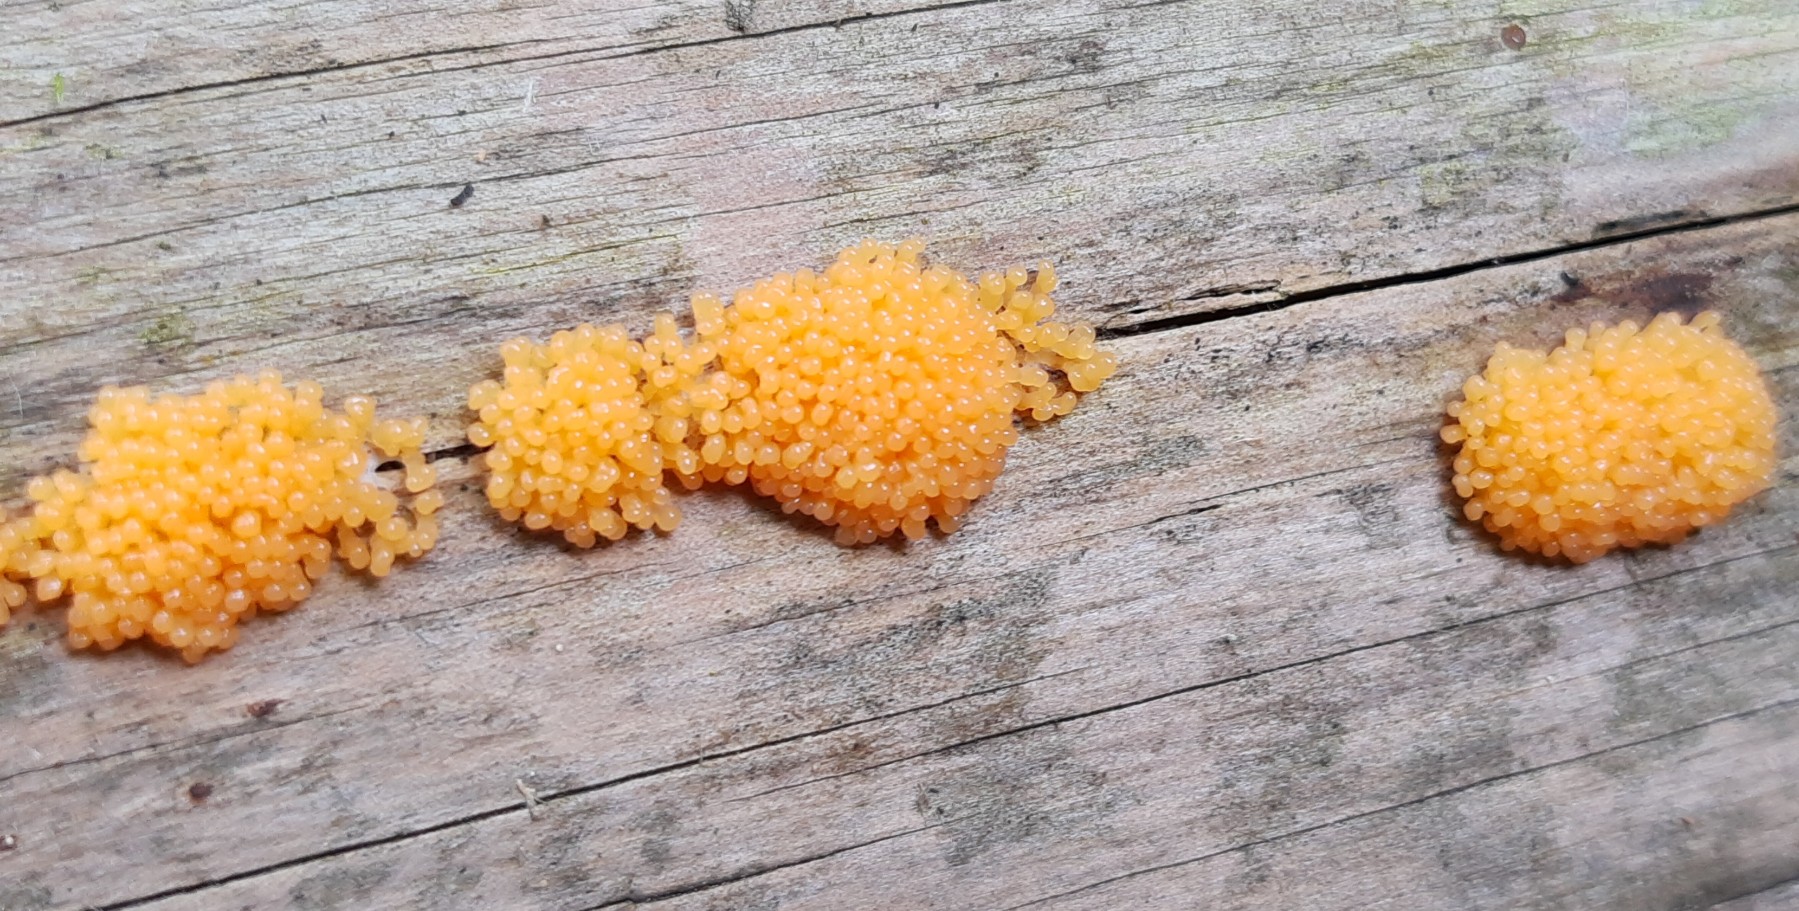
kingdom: Protozoa
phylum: Mycetozoa
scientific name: Mycetozoa
